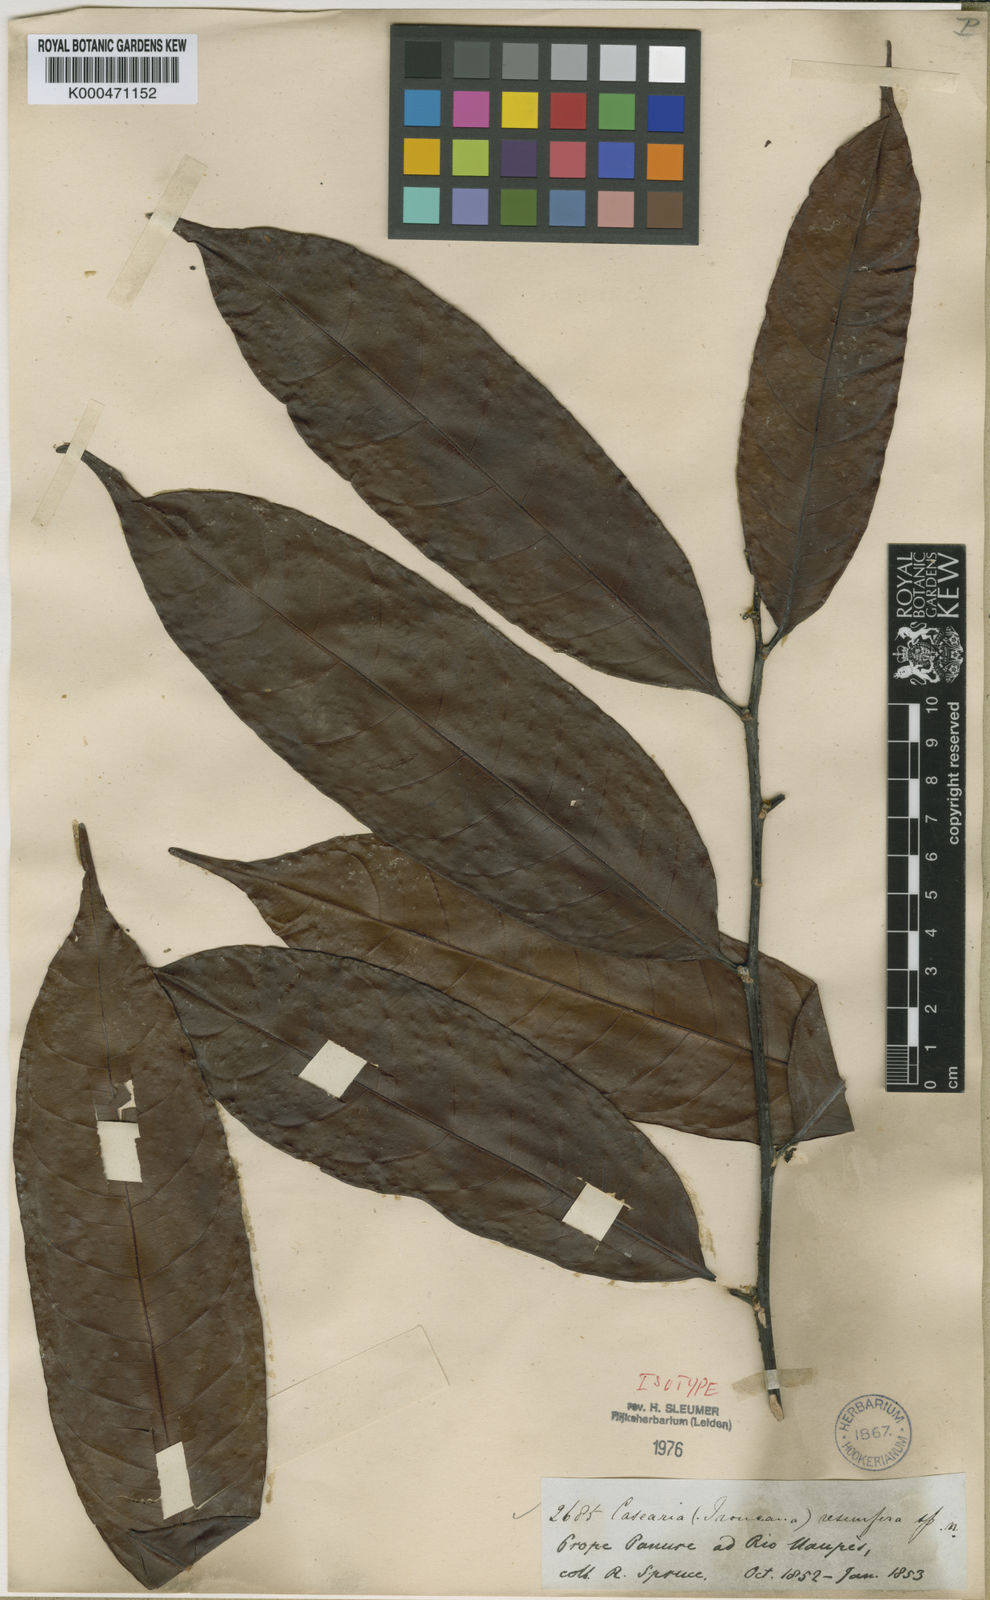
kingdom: Plantae
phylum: Tracheophyta
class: Magnoliopsida
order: Malpighiales
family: Salicaceae
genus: Casearia
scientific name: Casearia resinifera
